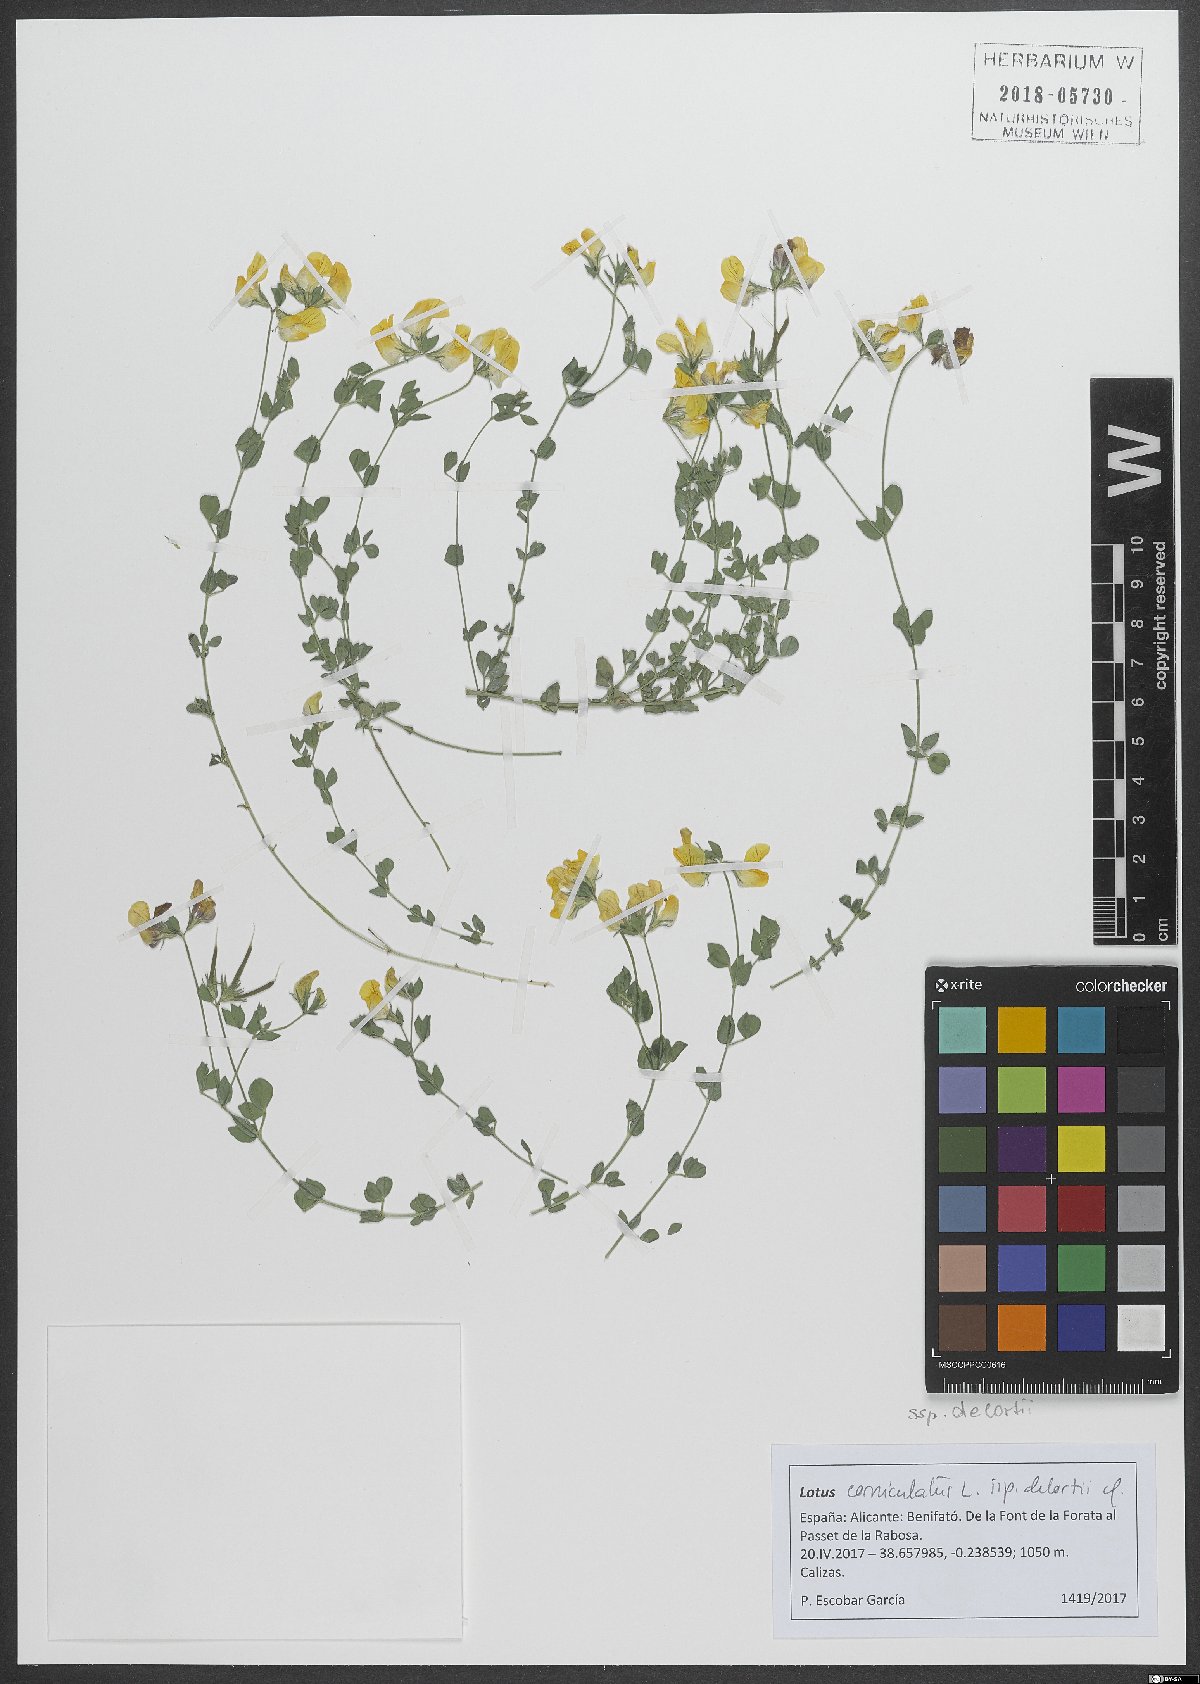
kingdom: Plantae
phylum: Tracheophyta
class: Magnoliopsida
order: Fabales
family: Fabaceae
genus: Lotus
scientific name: Lotus corniculatus
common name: Common bird's-foot-trefoil
